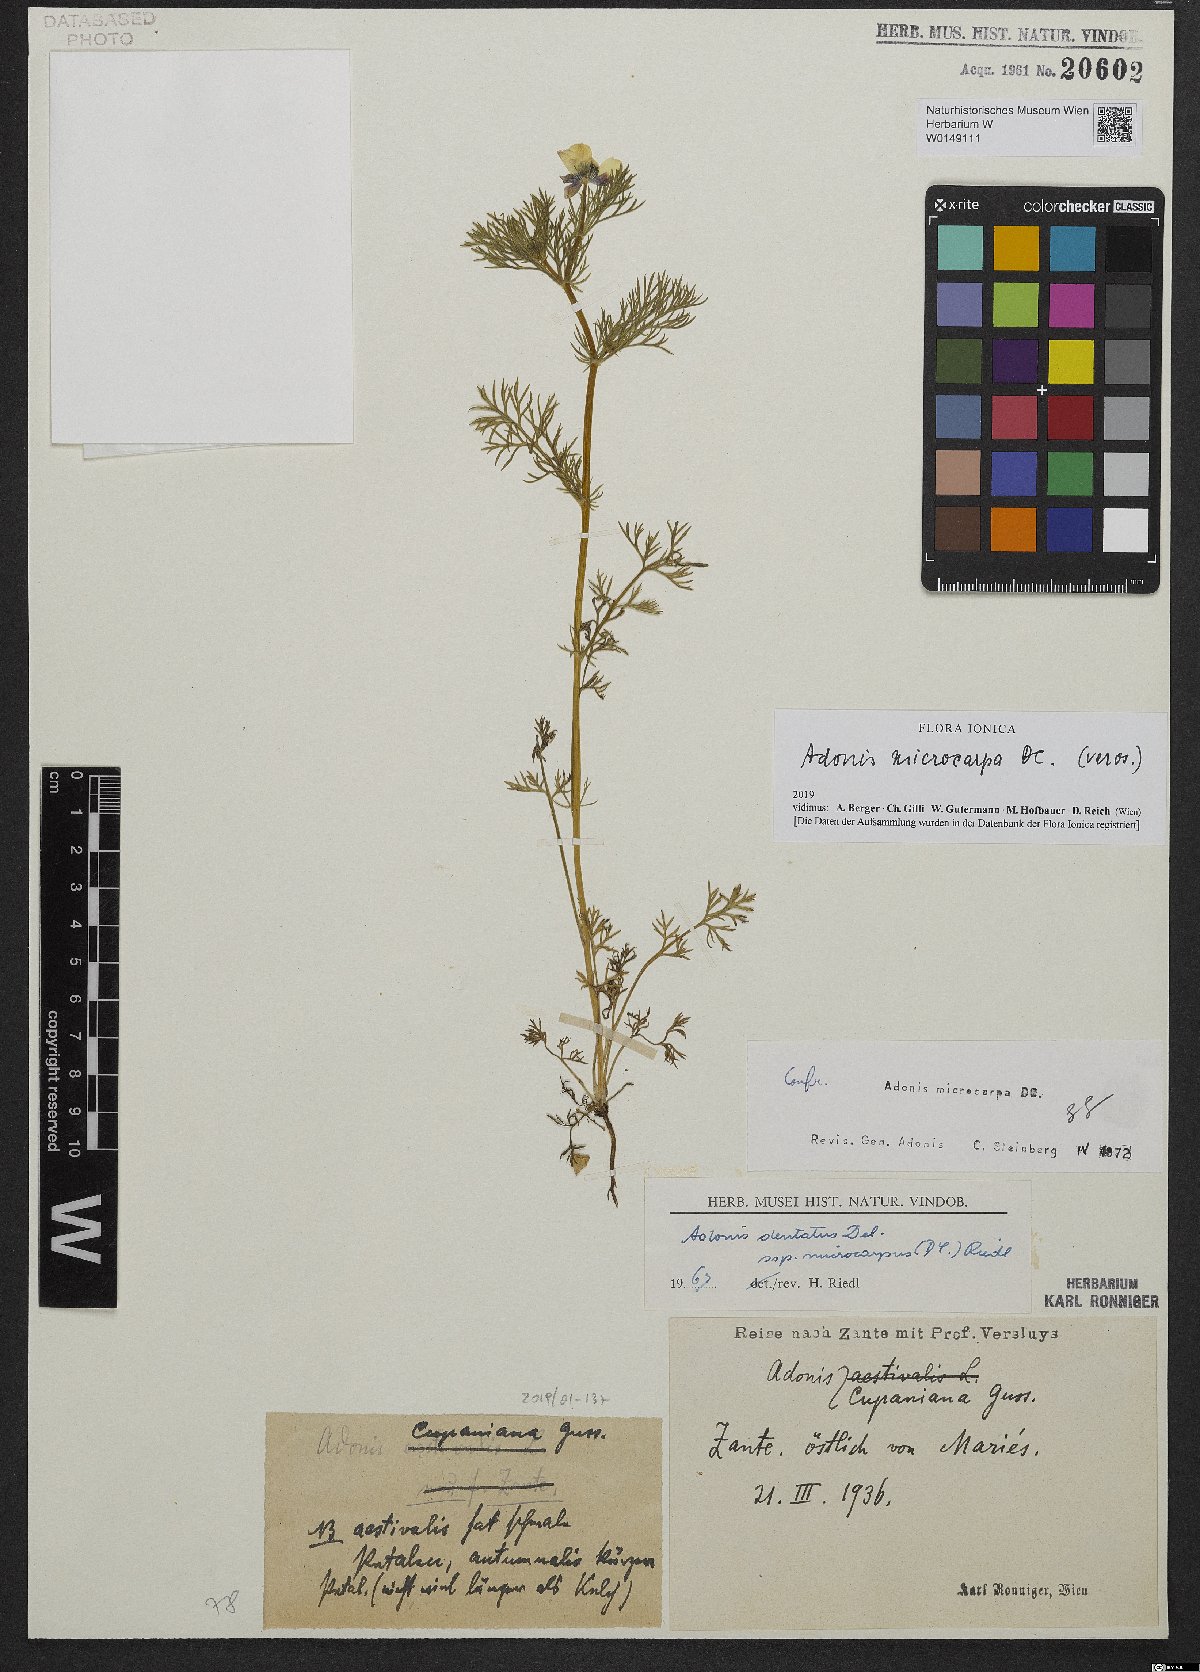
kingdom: Plantae
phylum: Tracheophyta
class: Magnoliopsida
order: Ranunculales
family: Ranunculaceae
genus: Adonis
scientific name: Adonis microcarpa
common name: Pheasant's-eye
